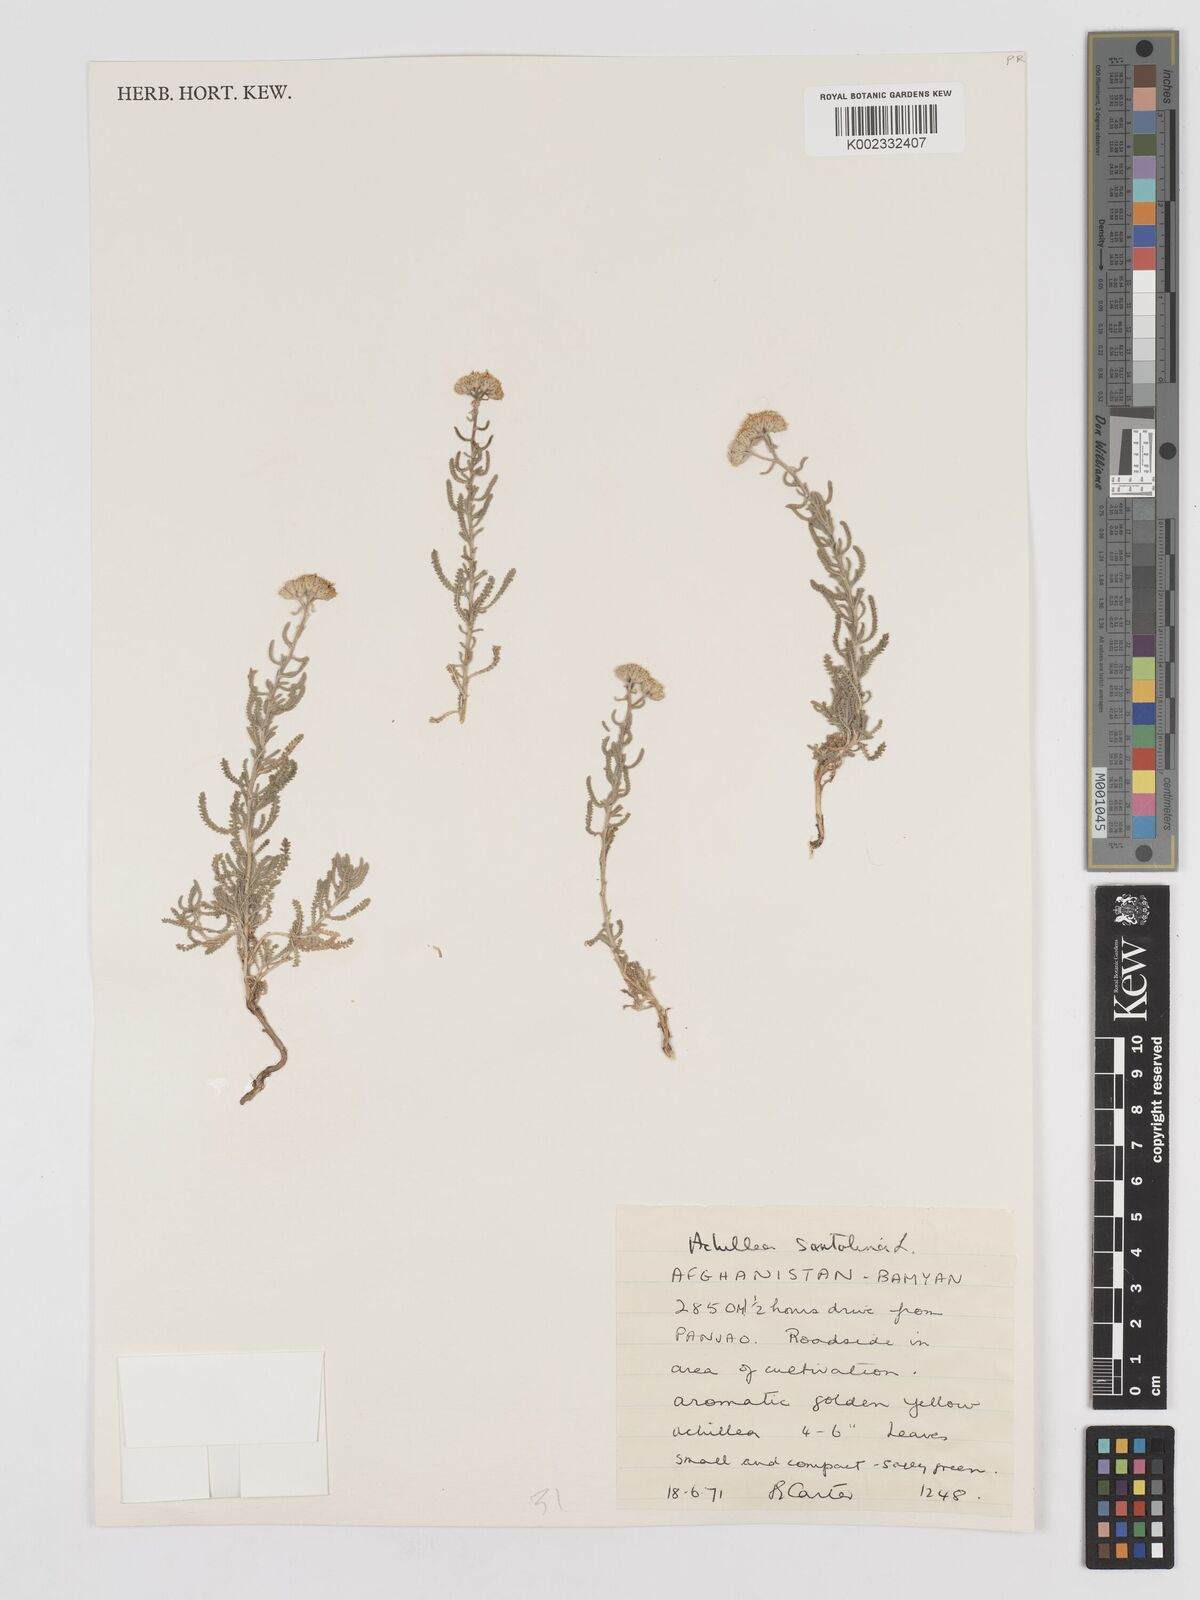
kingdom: Plantae
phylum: Tracheophyta
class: Magnoliopsida
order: Asterales
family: Asteraceae
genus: Achillea
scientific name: Achillea tenuifolia
